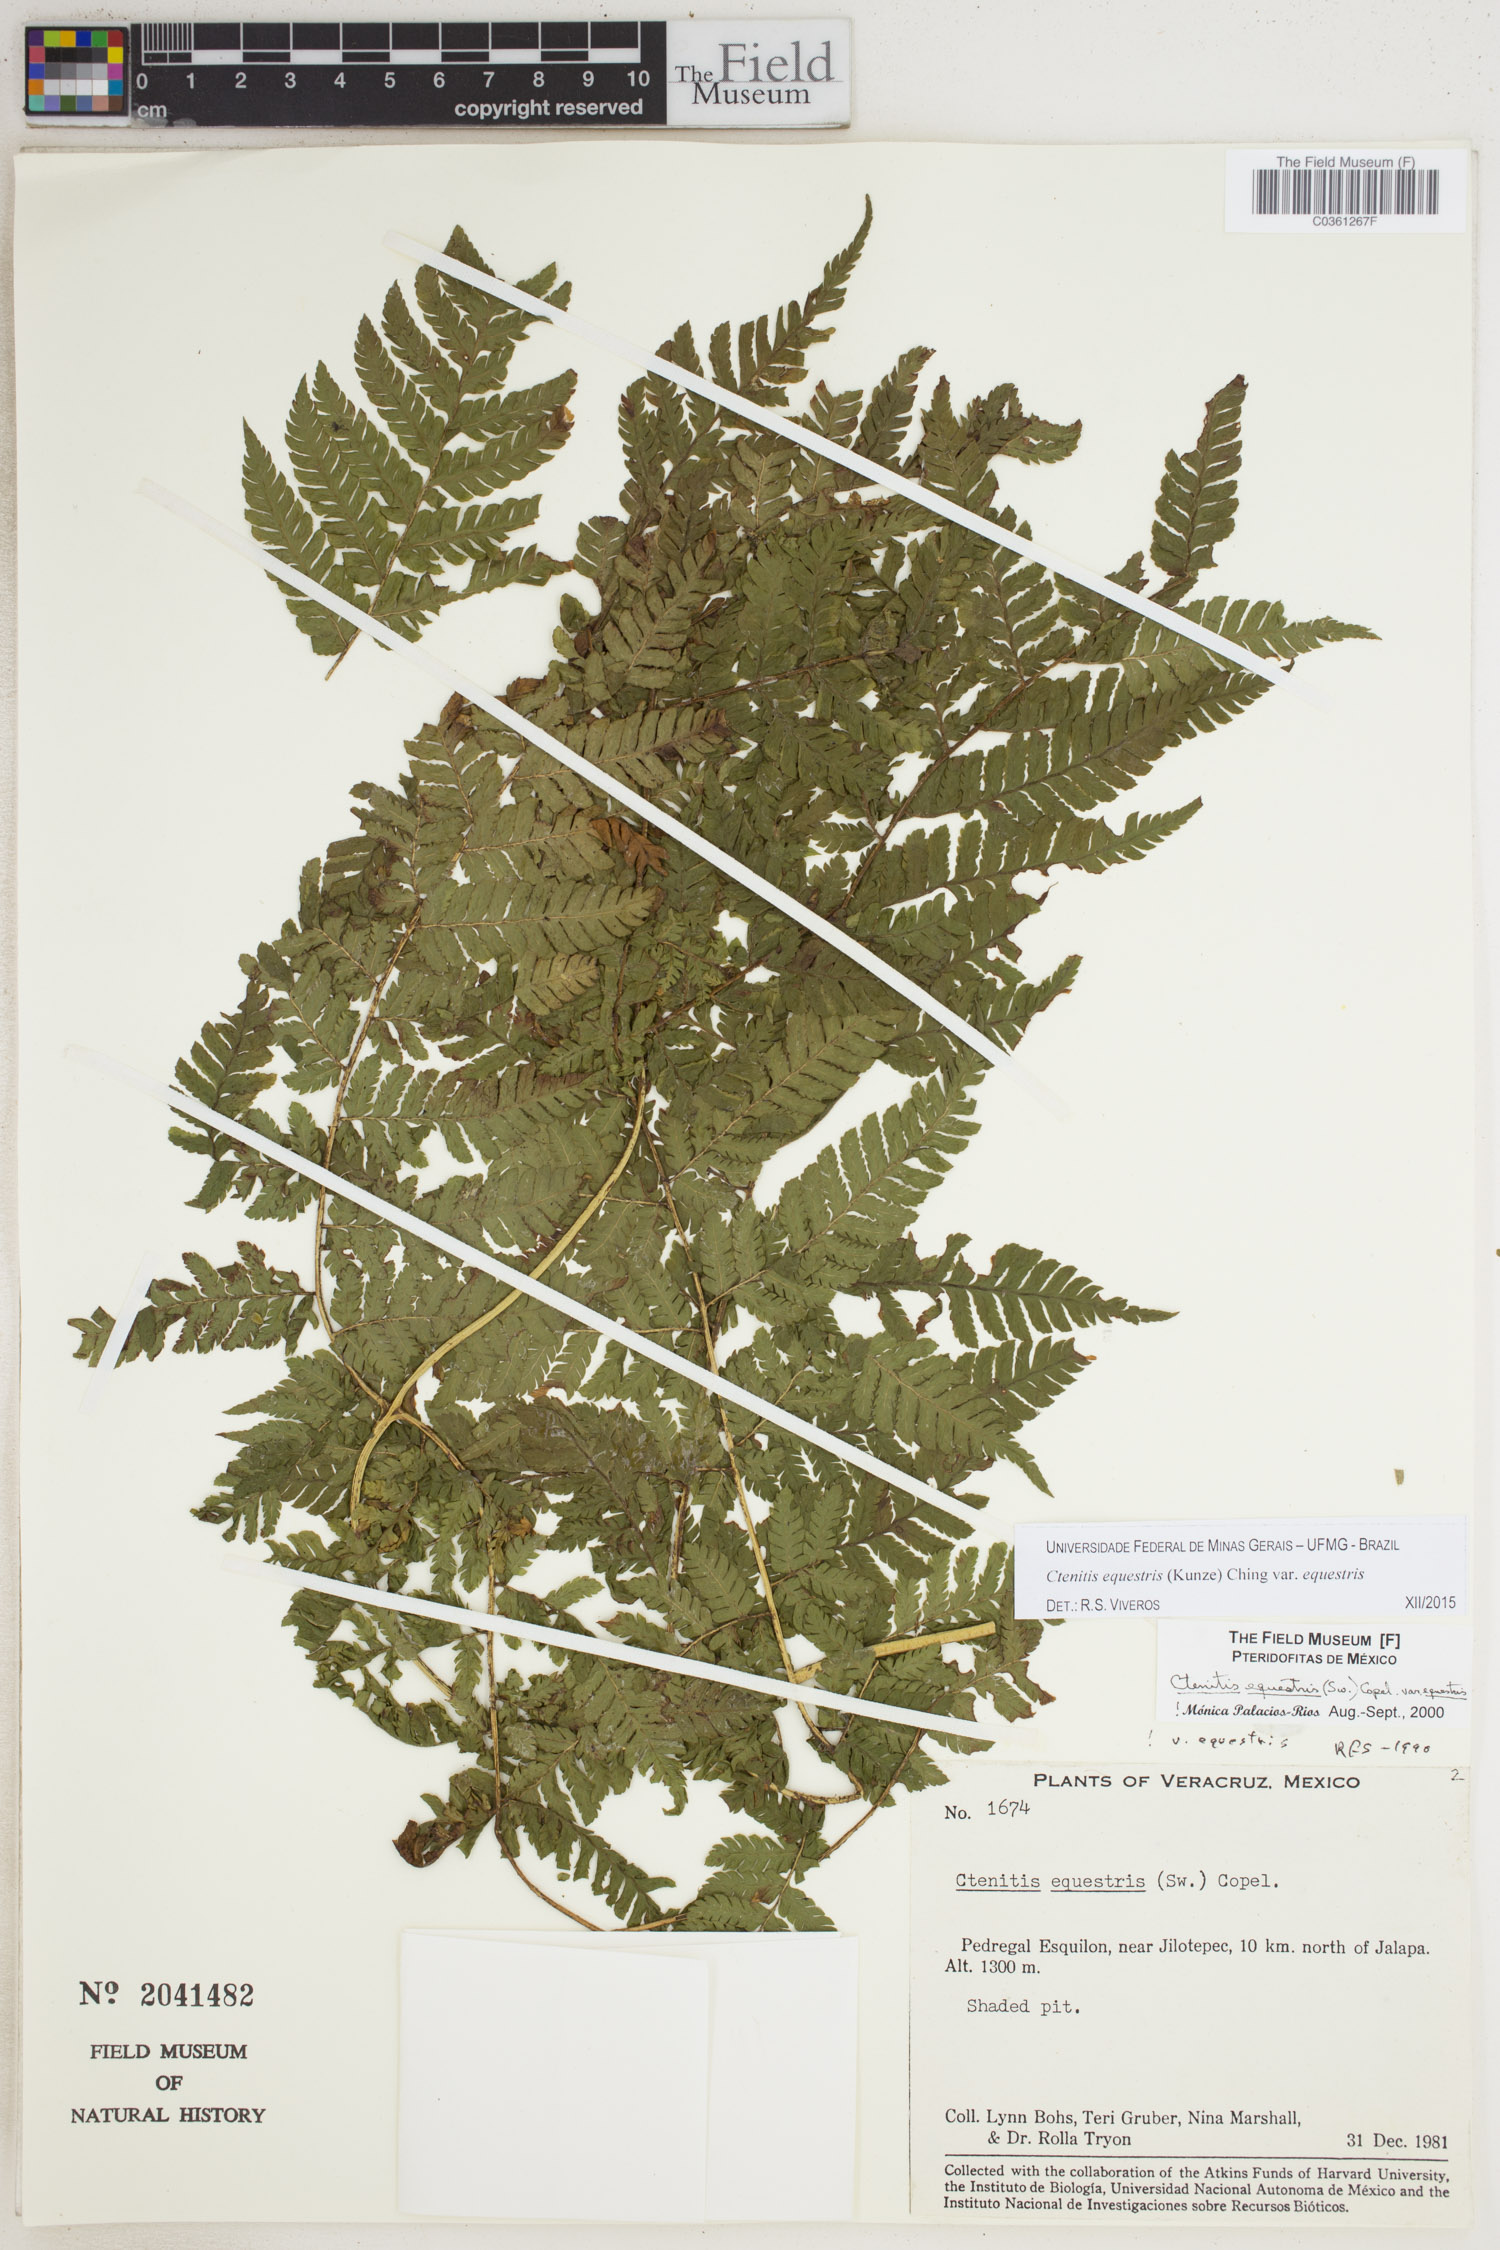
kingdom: Plantae
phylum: Tracheophyta
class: Polypodiopsida
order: Polypodiales
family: Dryopteridaceae
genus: Ctenitis
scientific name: Ctenitis equestris
